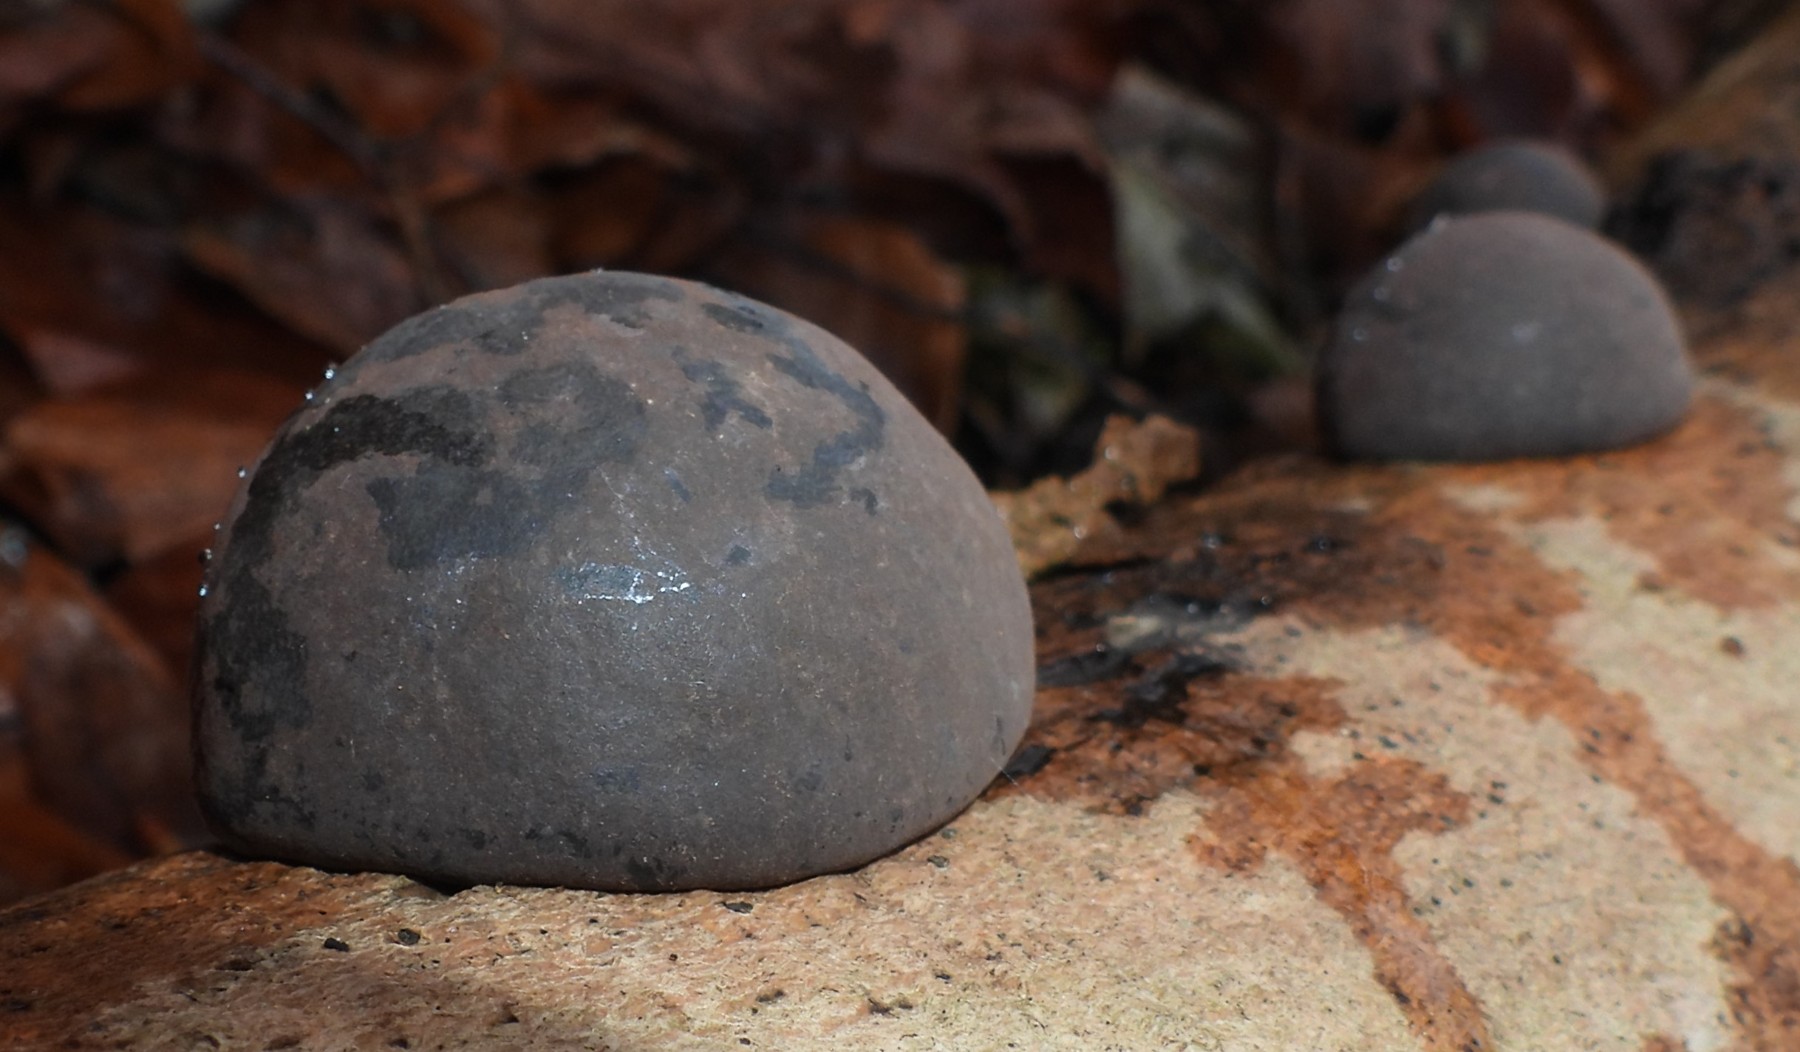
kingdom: Fungi
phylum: Ascomycota
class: Sordariomycetes
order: Xylariales
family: Hypoxylaceae
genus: Daldinia
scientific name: Daldinia concentrica
